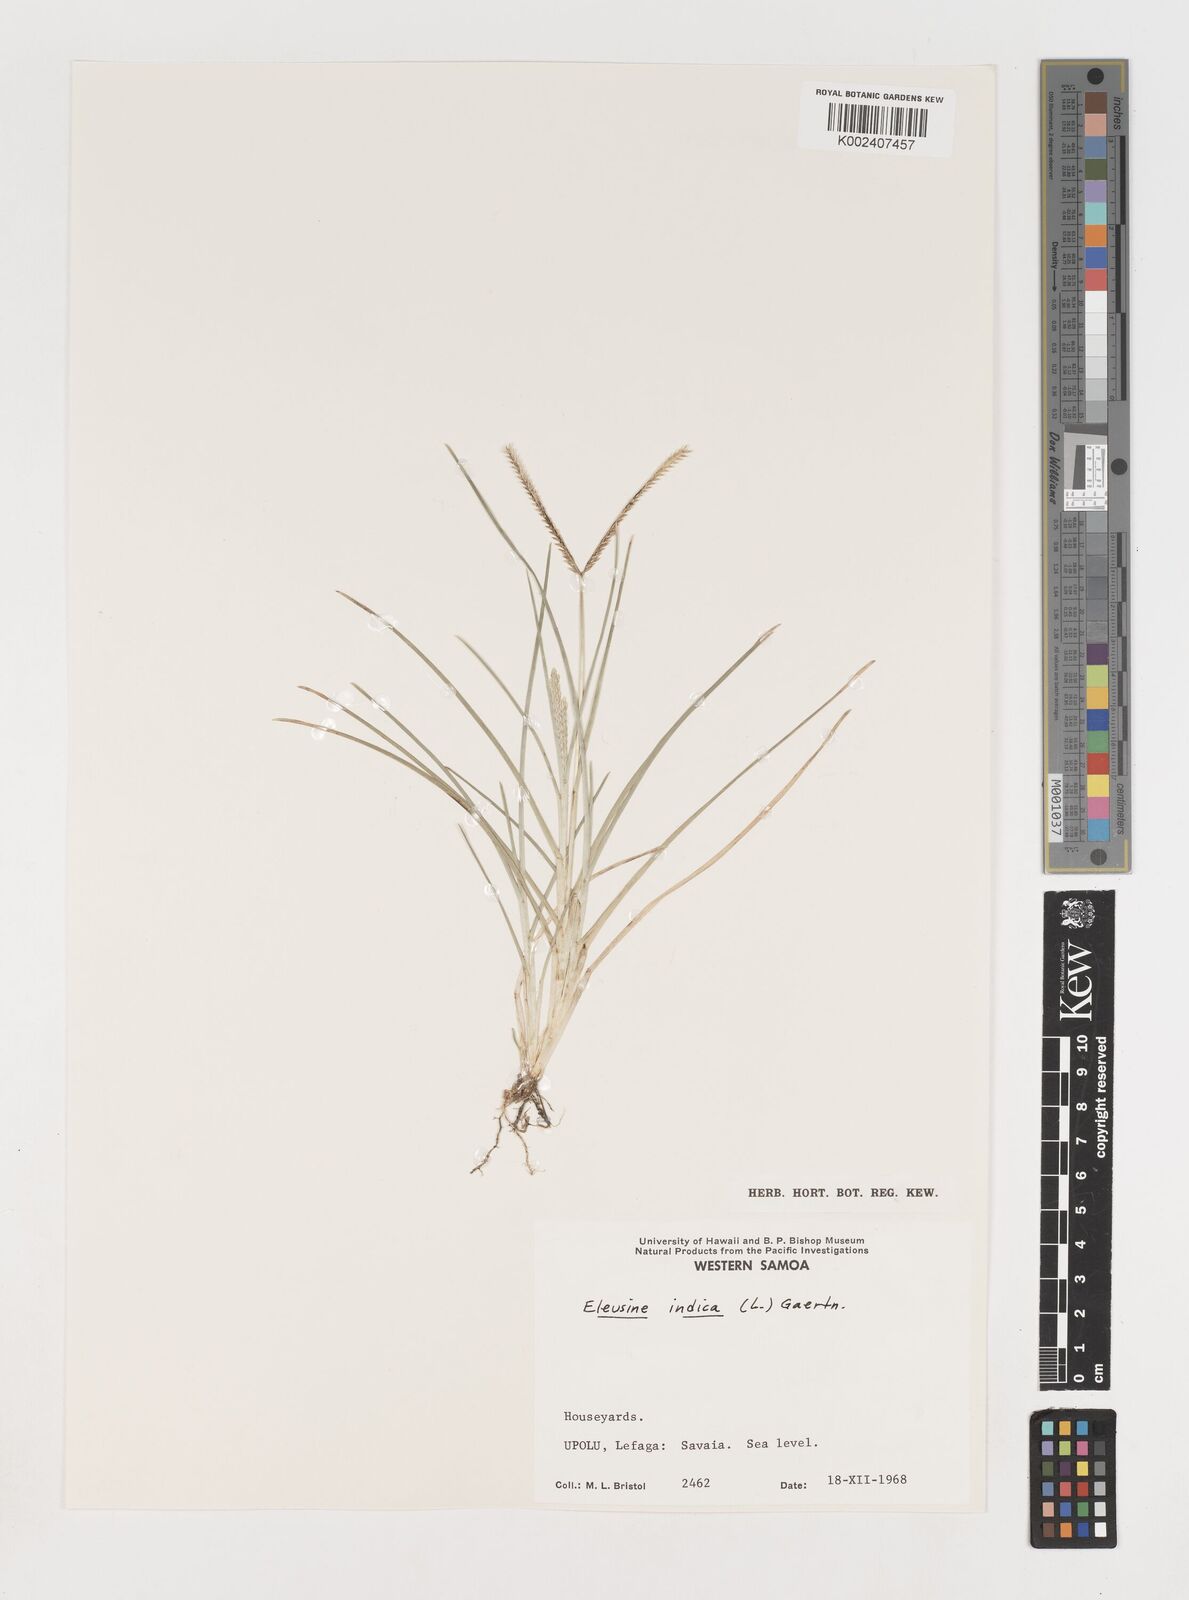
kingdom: Plantae
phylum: Tracheophyta
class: Liliopsida
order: Poales
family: Poaceae
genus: Eleusine
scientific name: Eleusine indica
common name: Yard-grass
